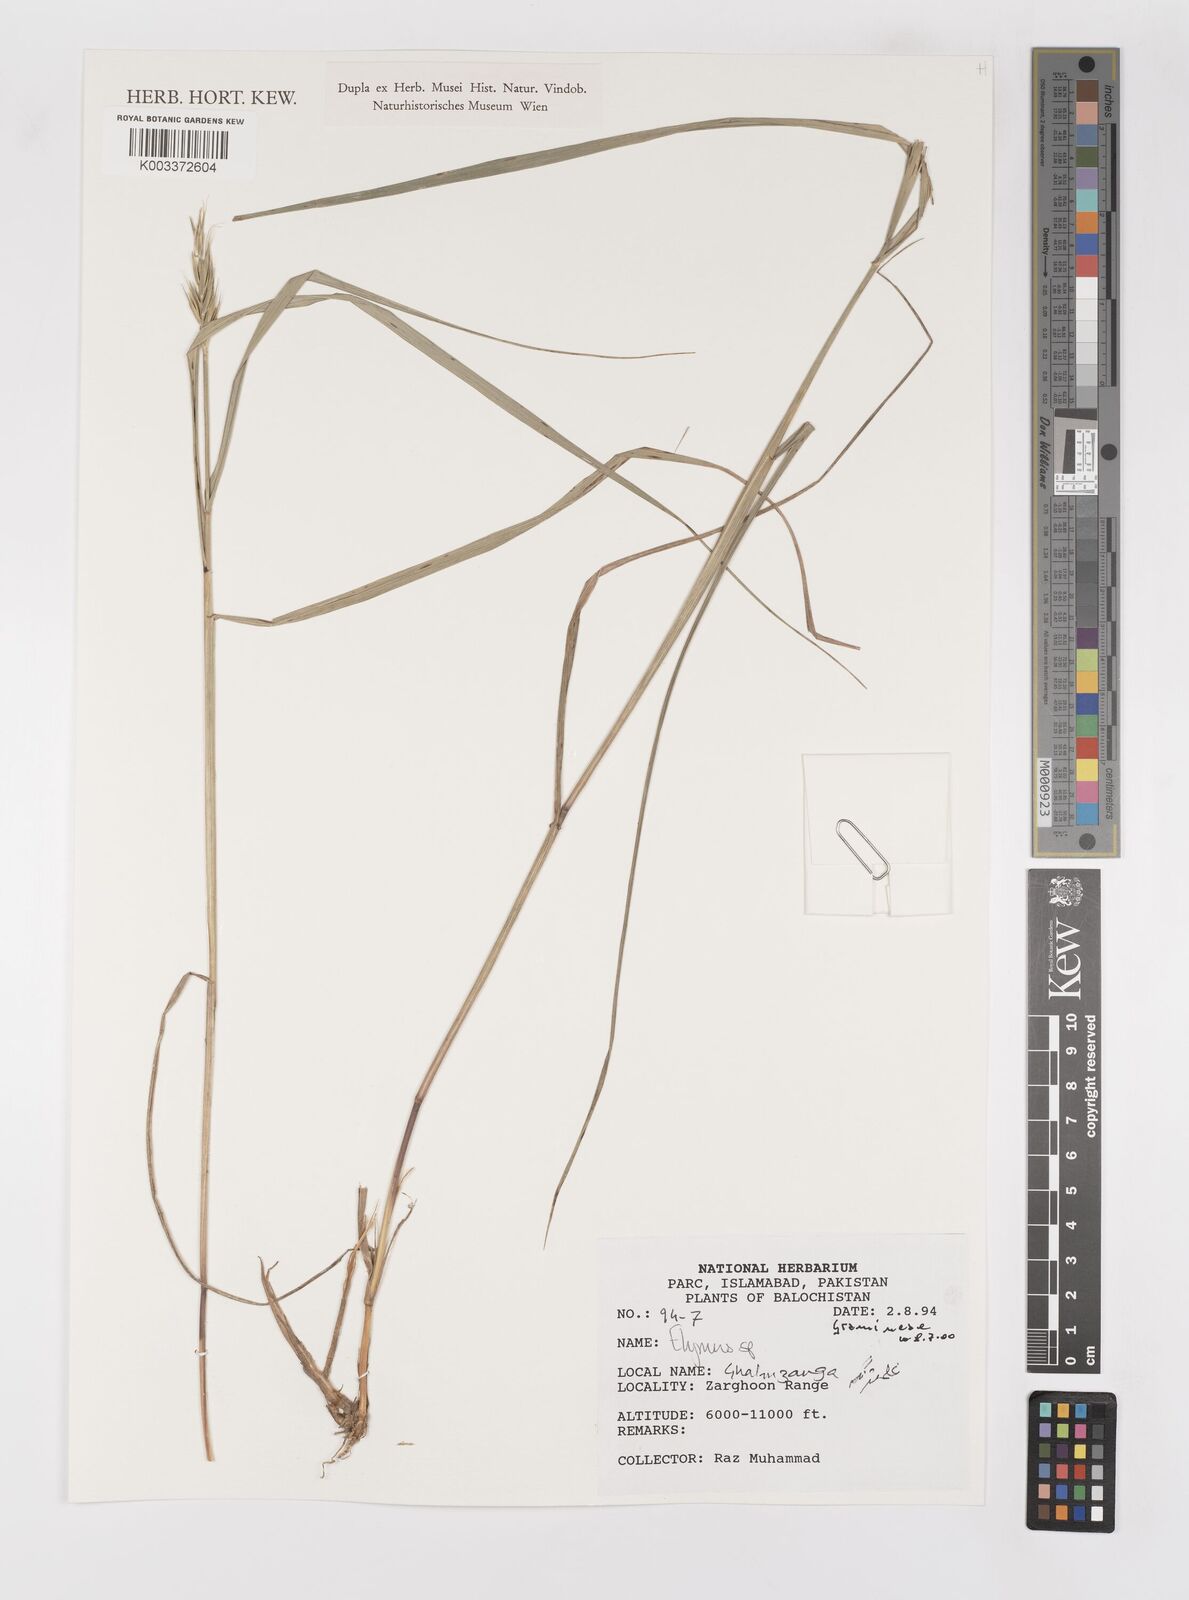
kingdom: Plantae
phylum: Tracheophyta
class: Liliopsida
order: Poales
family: Poaceae
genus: Elymus
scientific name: Elymus
